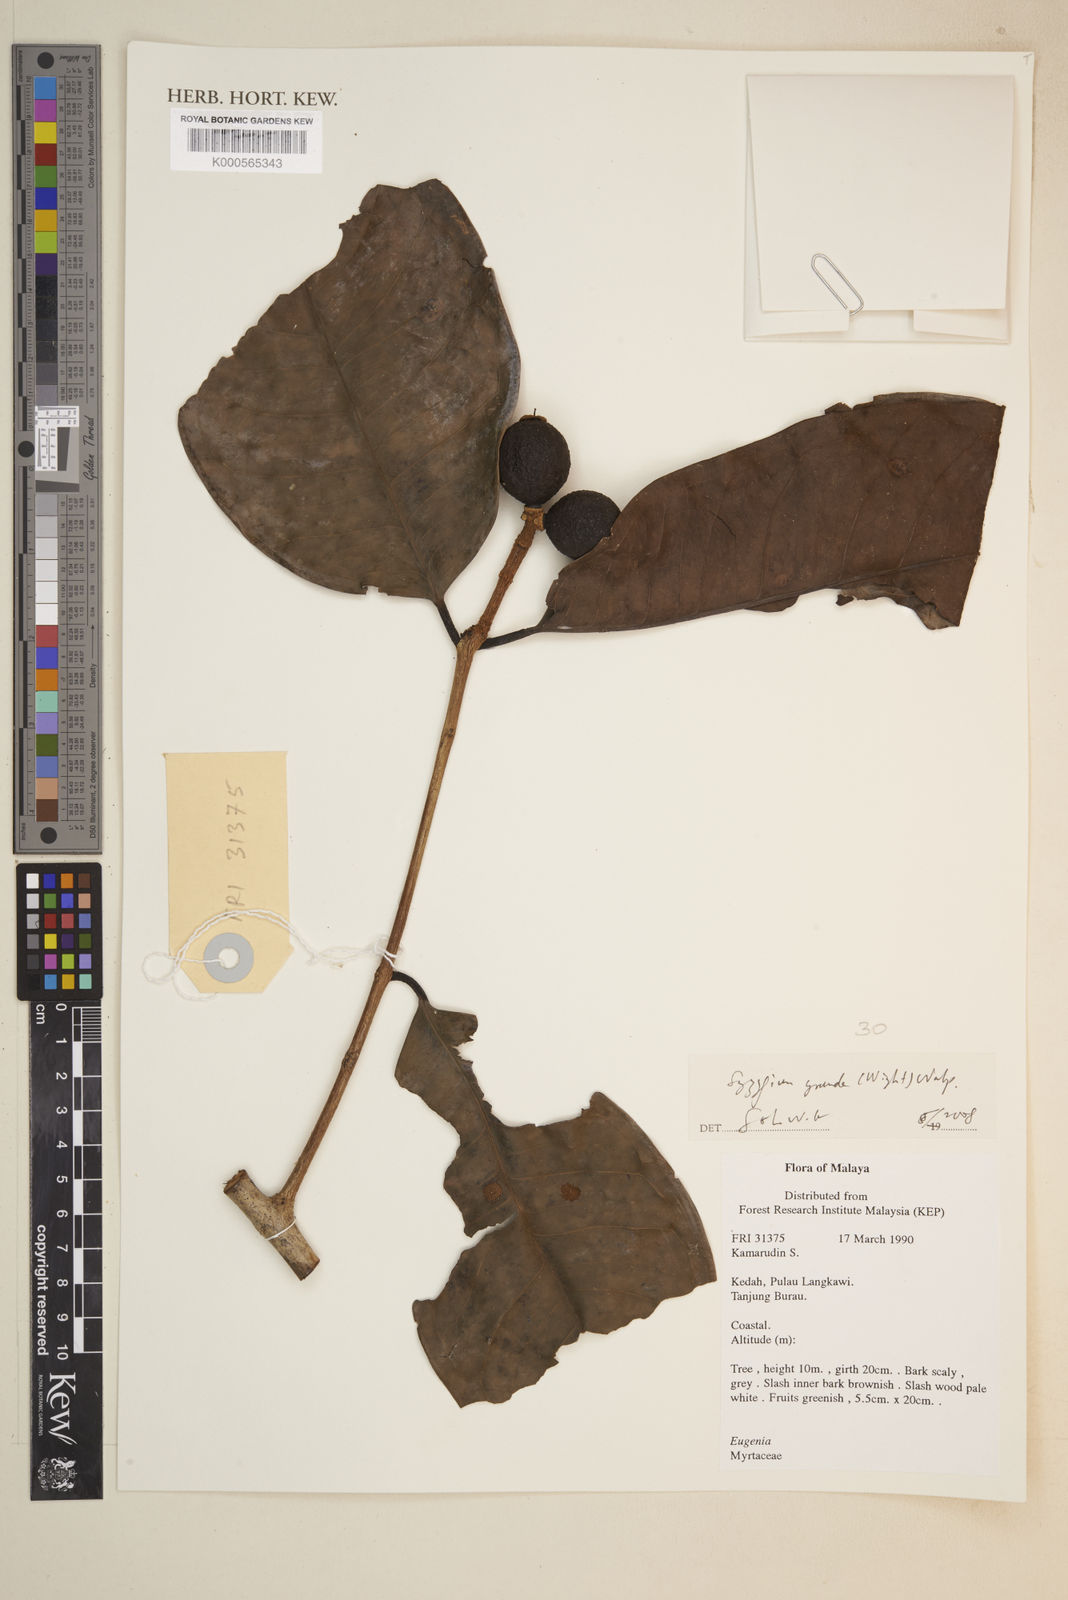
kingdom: Plantae
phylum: Tracheophyta
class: Magnoliopsida
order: Myrtales
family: Myrtaceae
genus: Syzygium
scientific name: Syzygium grande
